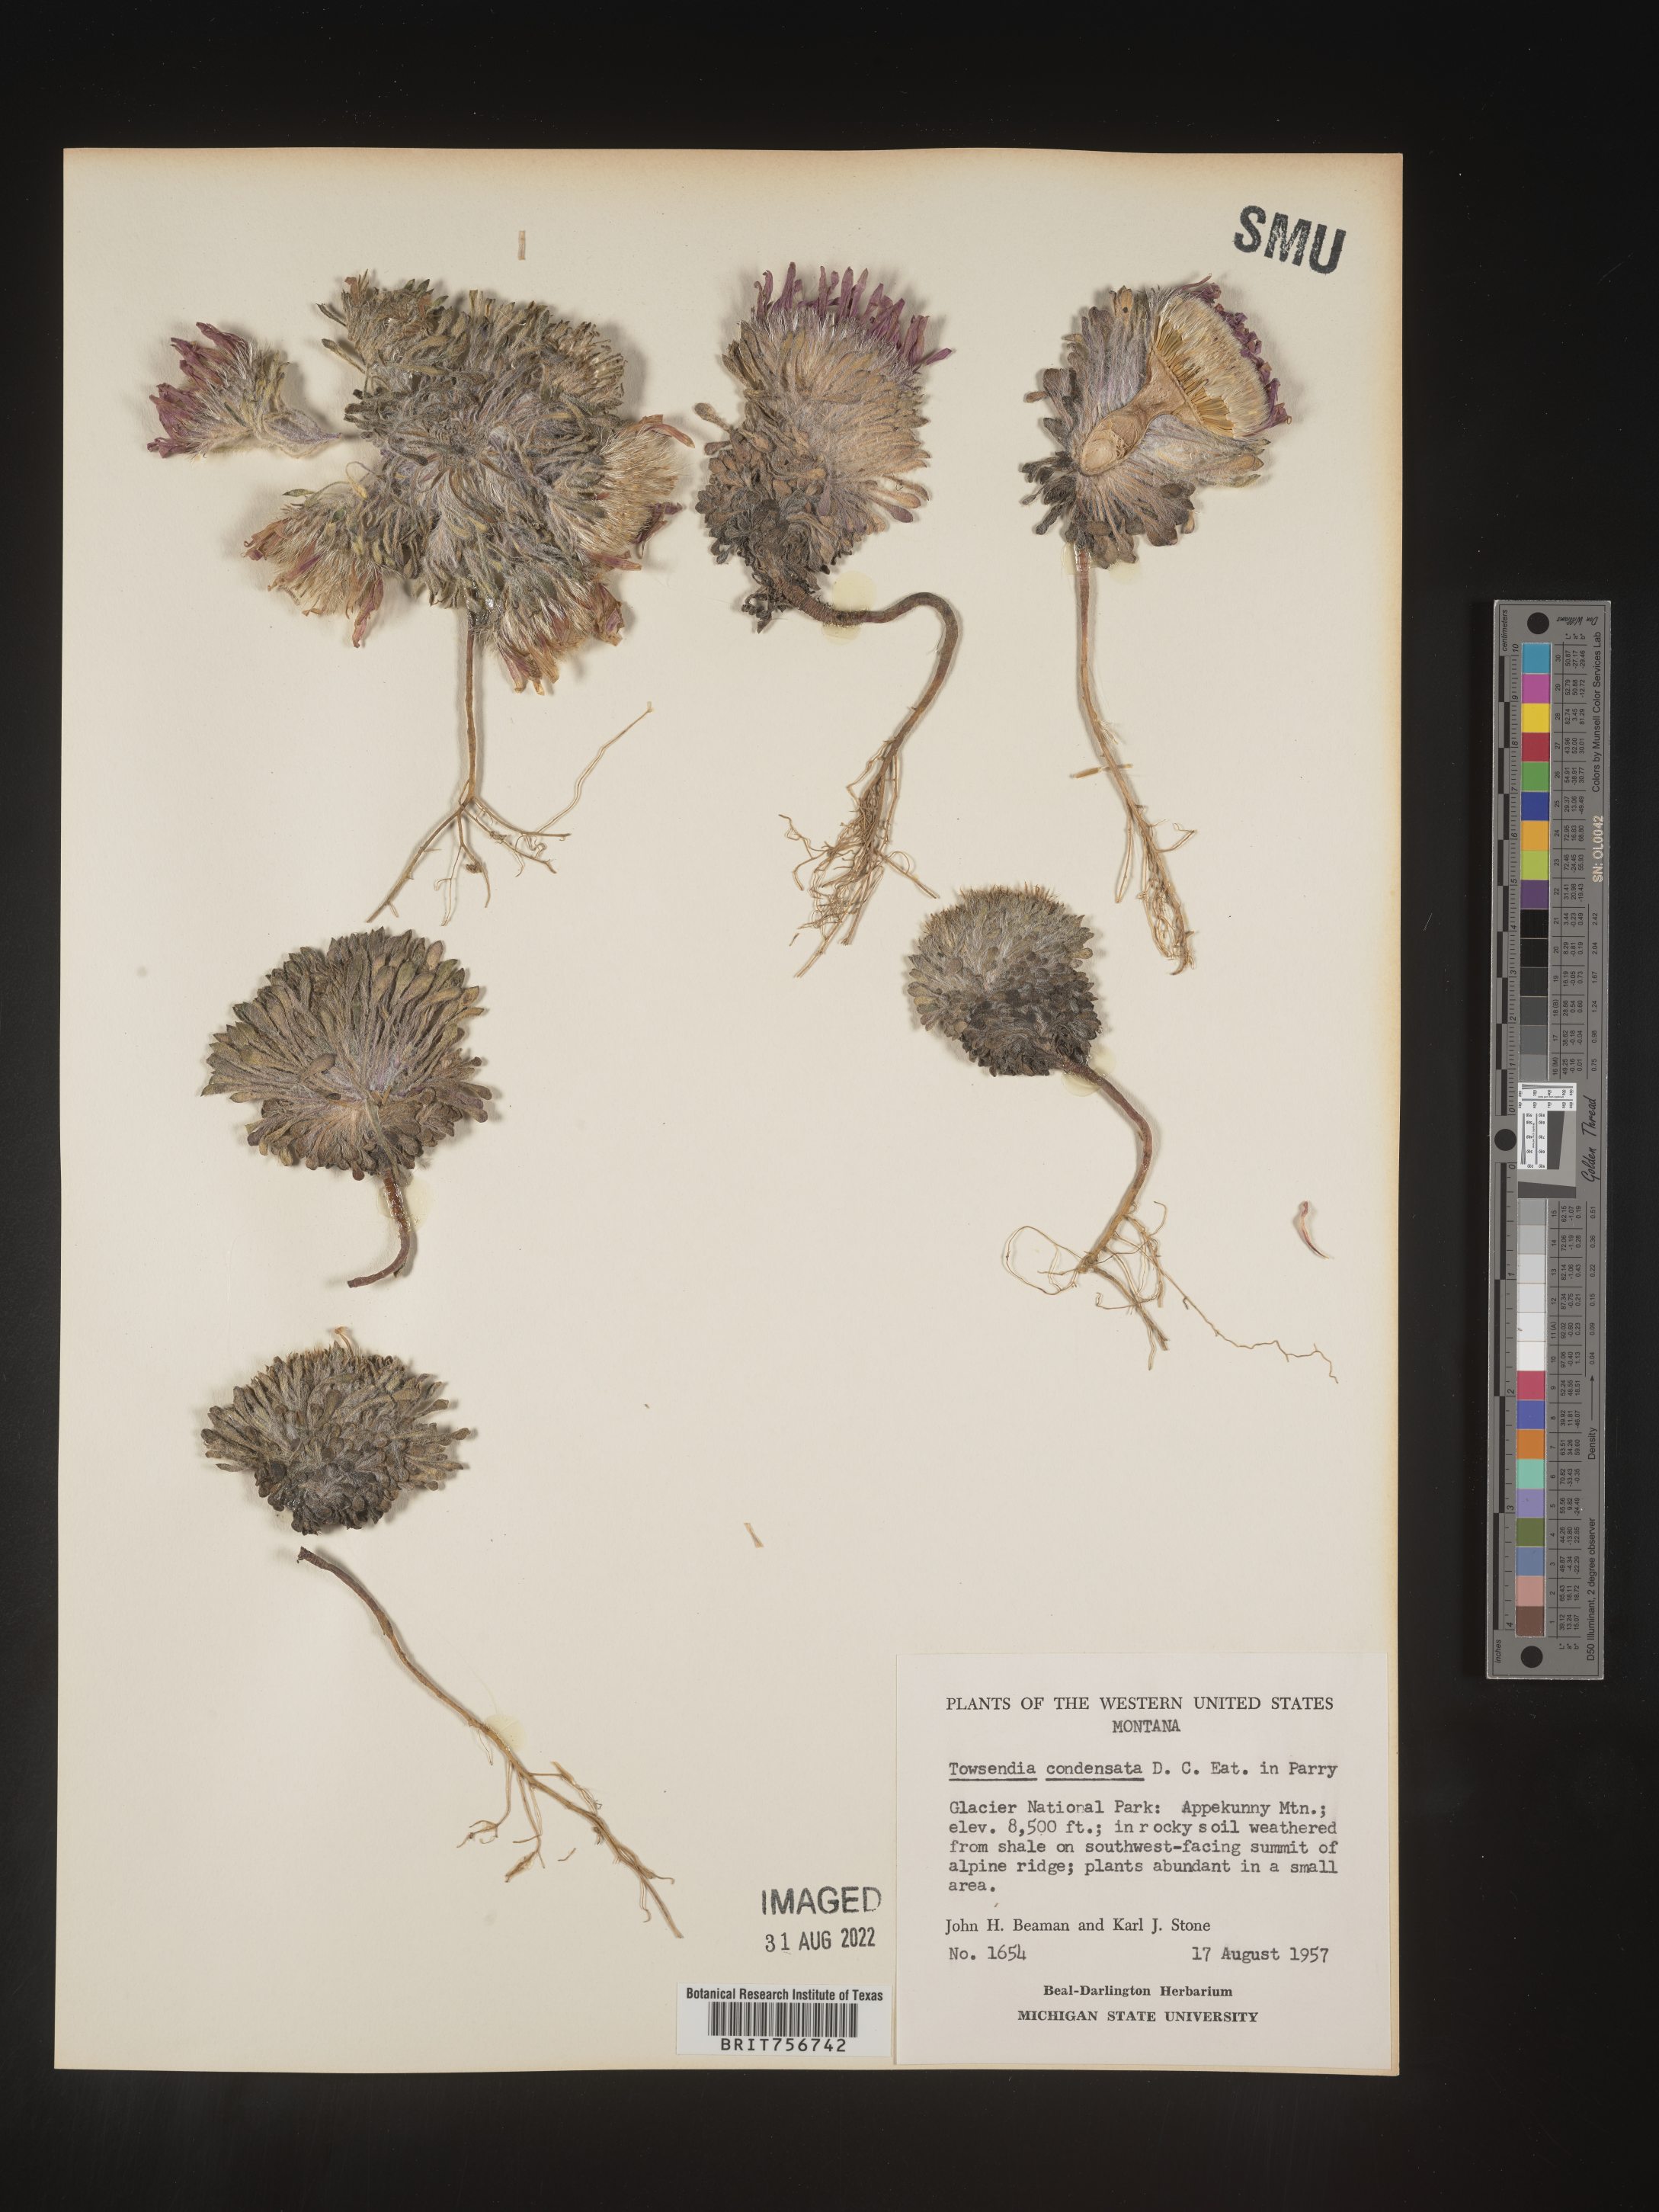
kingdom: Plantae
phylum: Tracheophyta
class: Magnoliopsida
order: Asterales
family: Asteraceae
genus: Townsendia
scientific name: Townsendia condensata
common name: Alpine townsend daisy
